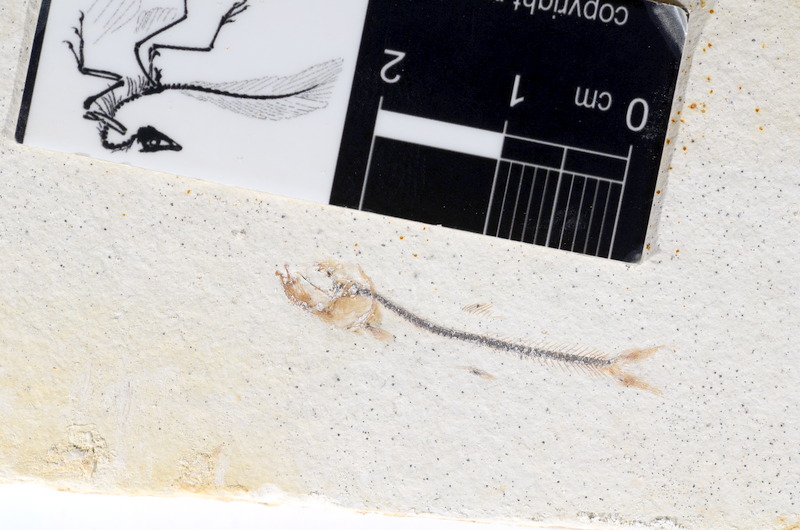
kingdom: Animalia
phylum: Chordata
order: Salmoniformes
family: Orthogonikleithridae
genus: Orthogonikleithrus
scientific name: Orthogonikleithrus hoelli
